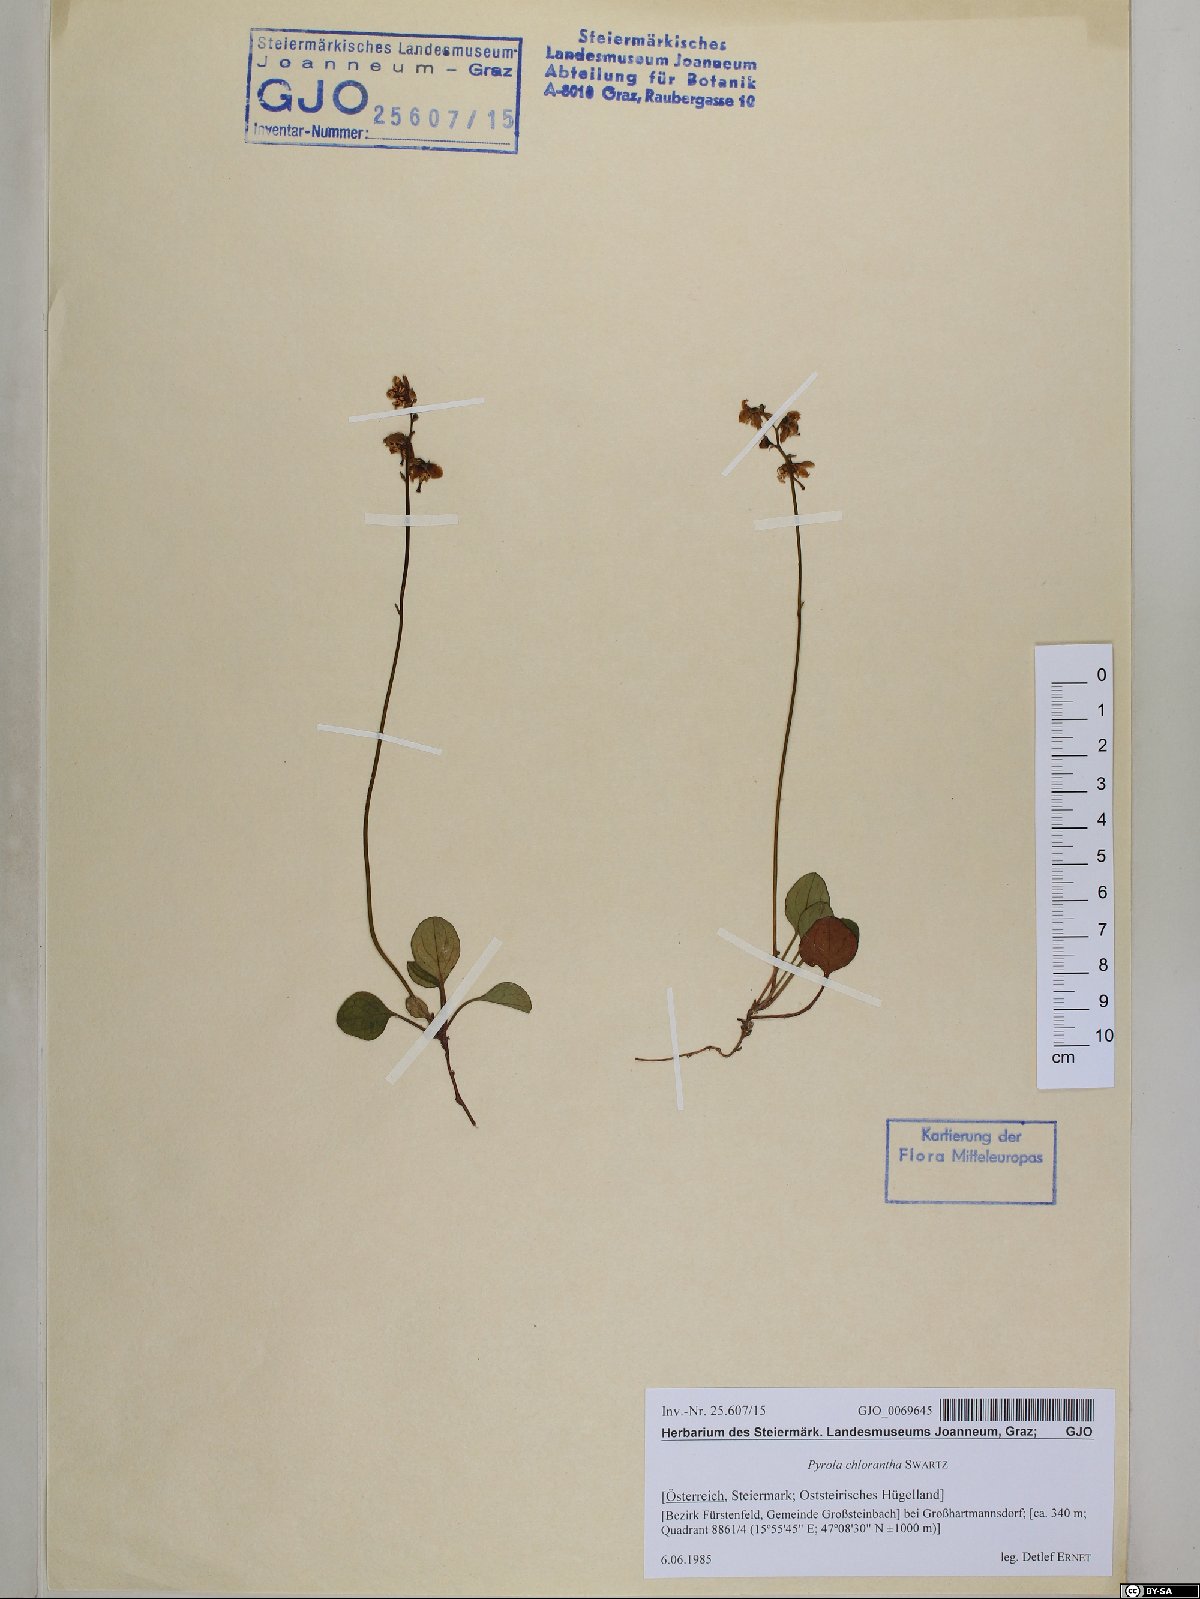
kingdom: Plantae
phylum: Tracheophyta
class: Magnoliopsida
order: Ericales
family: Ericaceae
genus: Pyrola
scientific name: Pyrola chlorantha
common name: Green wintergreen
